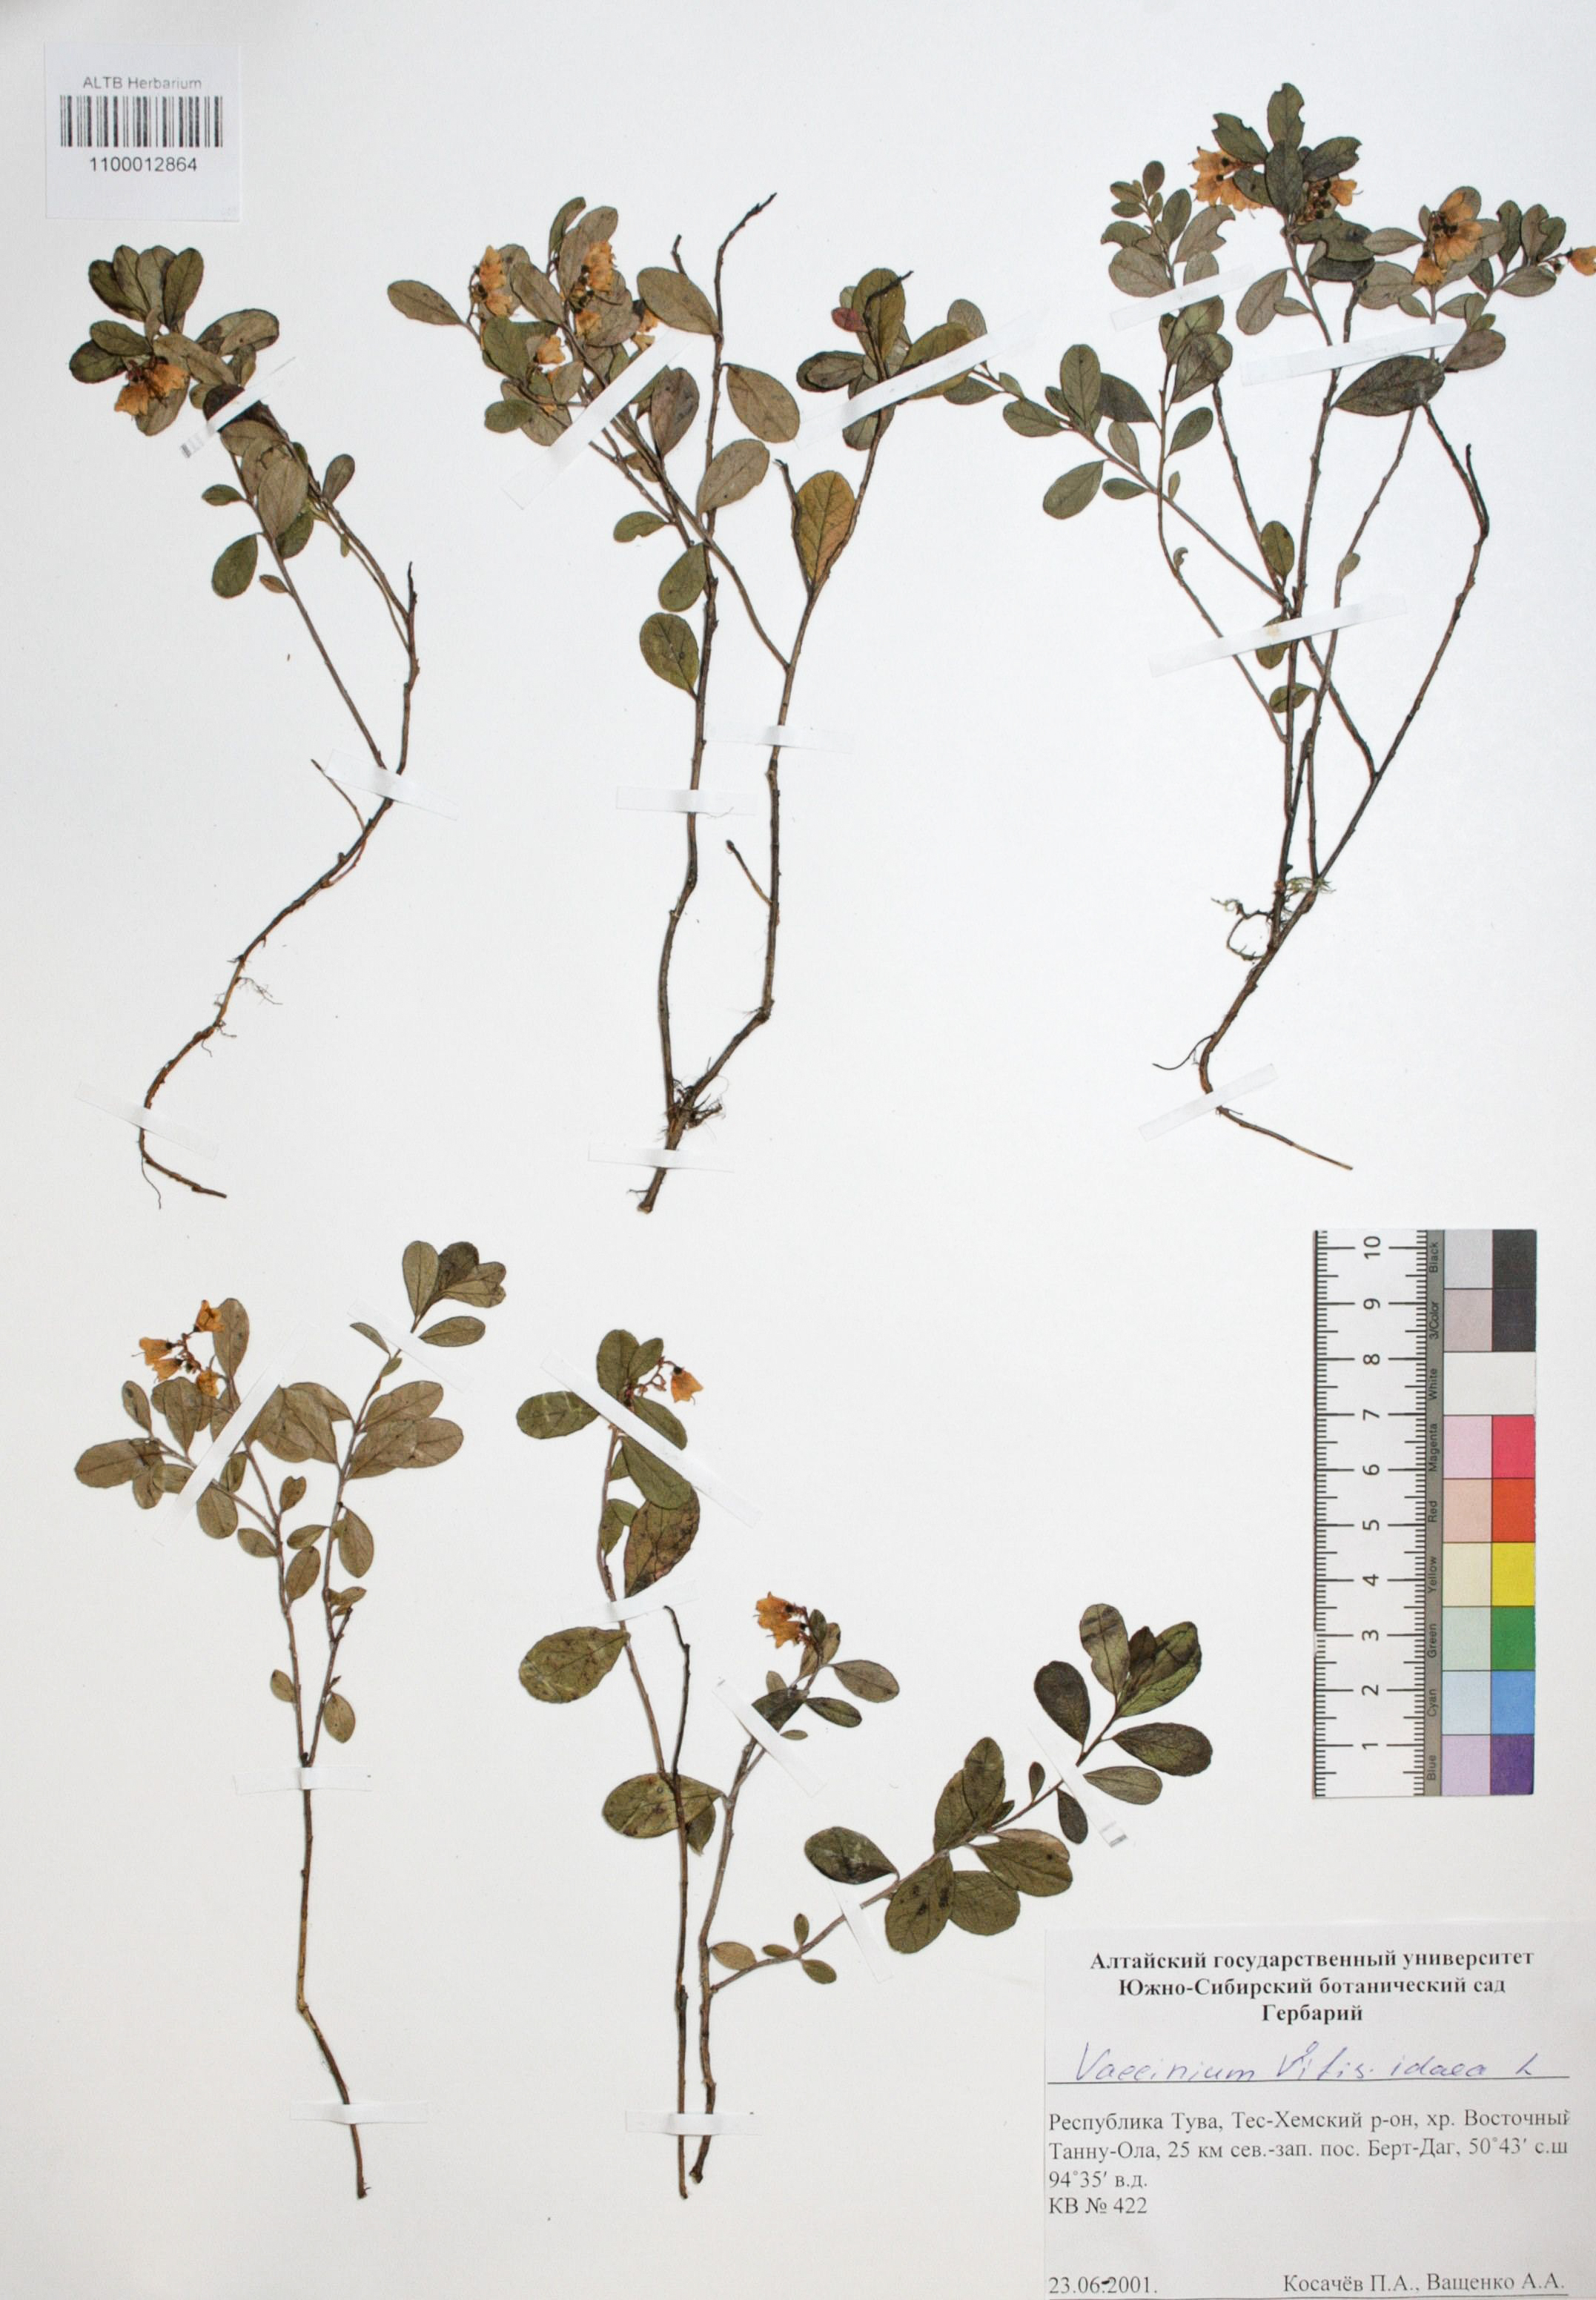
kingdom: Plantae
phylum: Tracheophyta
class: Magnoliopsida
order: Ericales
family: Ericaceae
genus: Vaccinium
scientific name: Vaccinium vitis-idaea
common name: Cowberry
